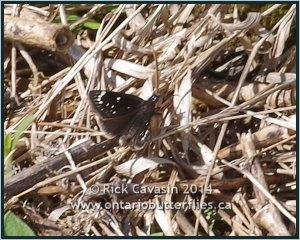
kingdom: Animalia
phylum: Arthropoda
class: Insecta
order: Lepidoptera
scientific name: Lepidoptera
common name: Butterflies
